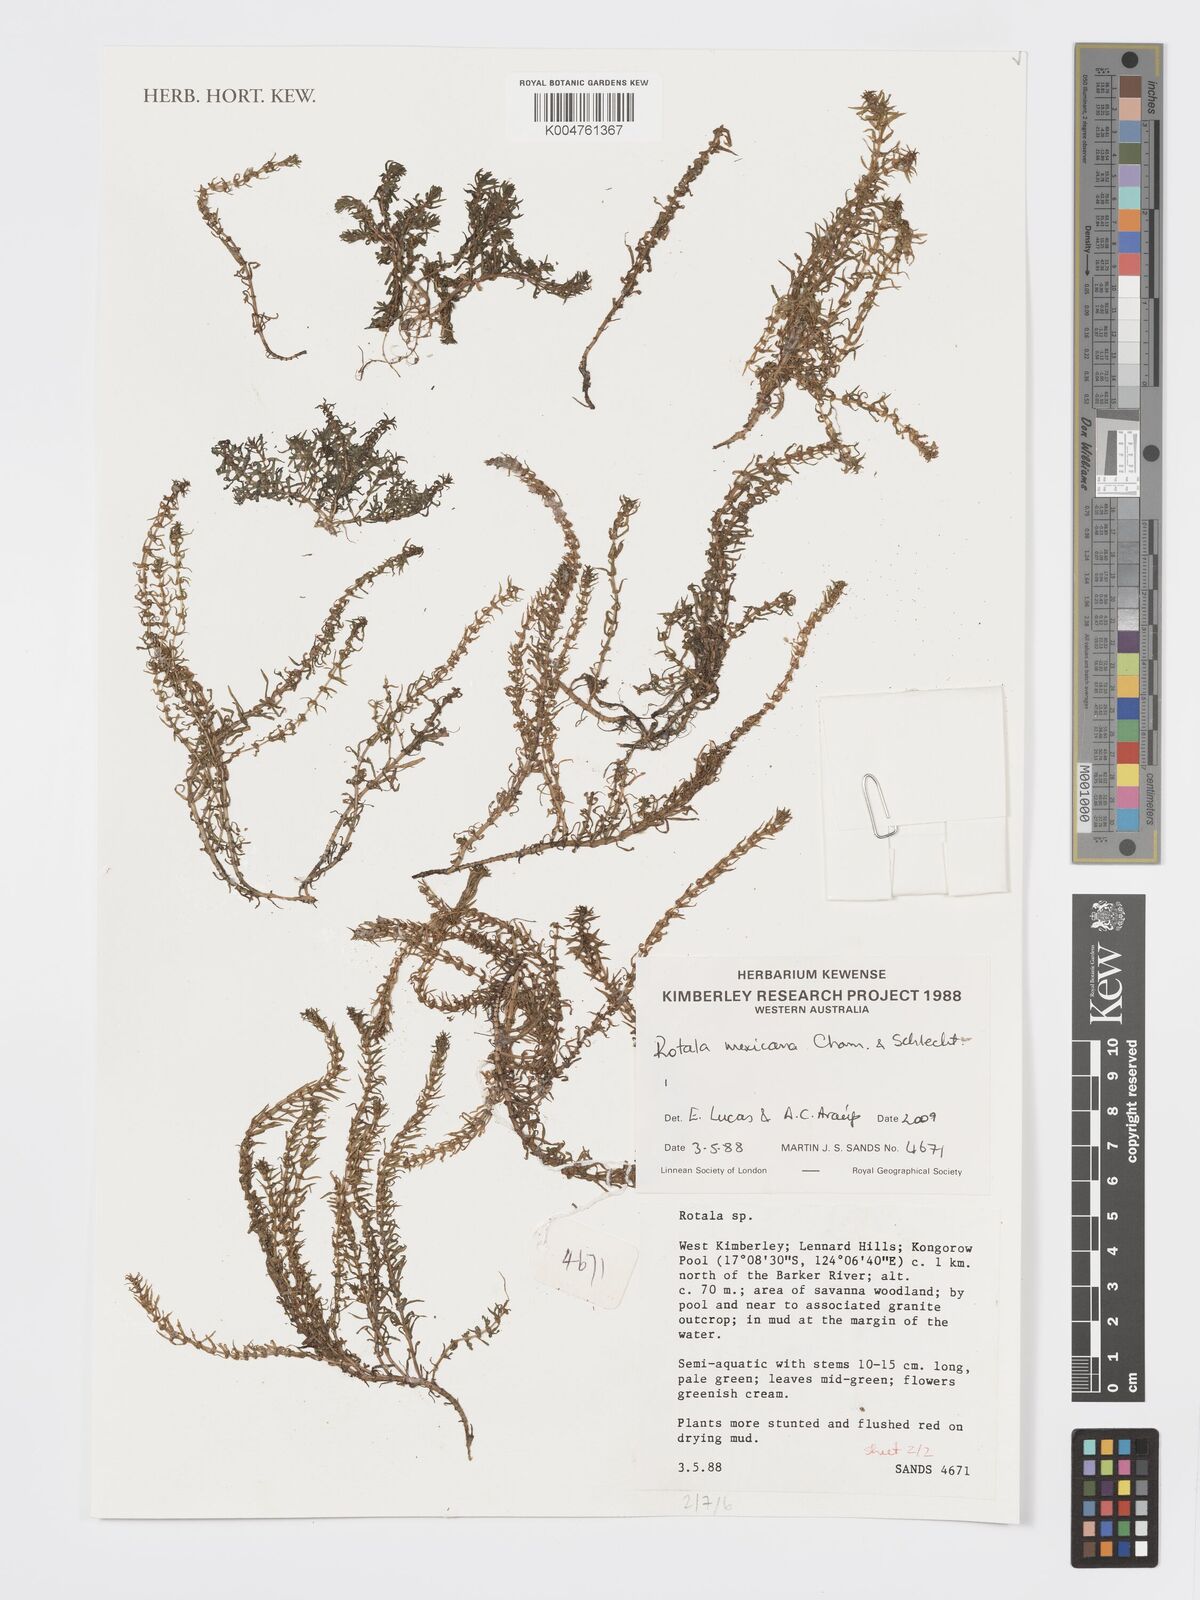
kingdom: Plantae
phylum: Tracheophyta
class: Magnoliopsida
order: Myrtales
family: Lythraceae
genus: Rotala
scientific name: Rotala mexicana
